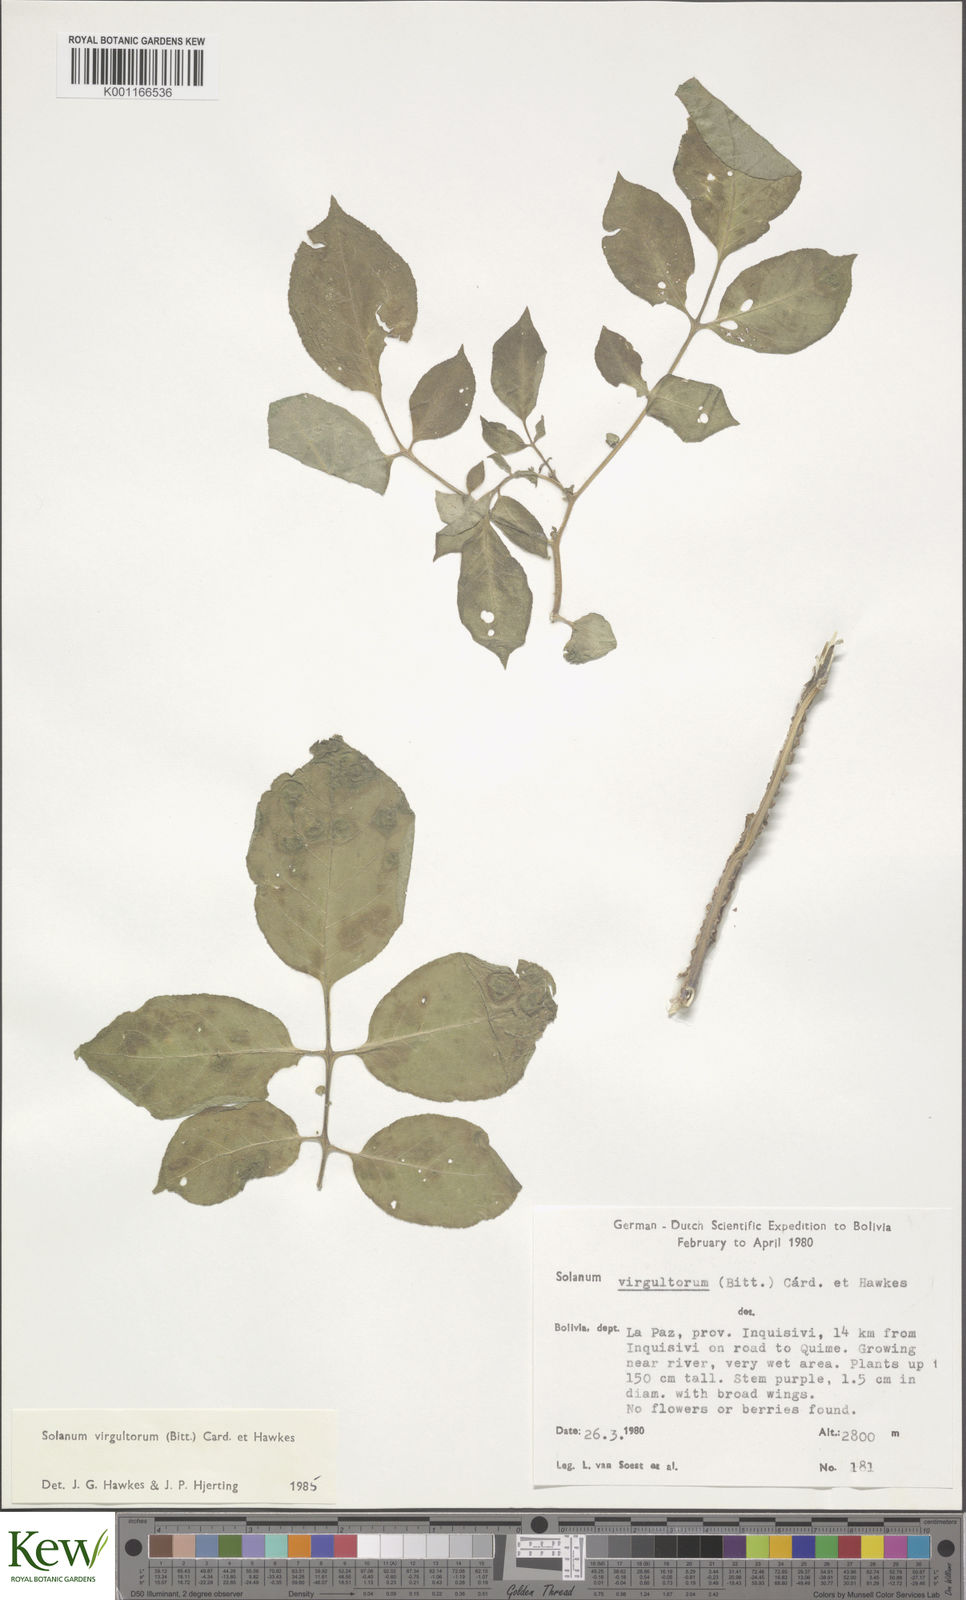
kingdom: Plantae
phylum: Tracheophyta
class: Magnoliopsida
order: Solanales
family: Solanaceae
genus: Solanum
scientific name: Solanum
